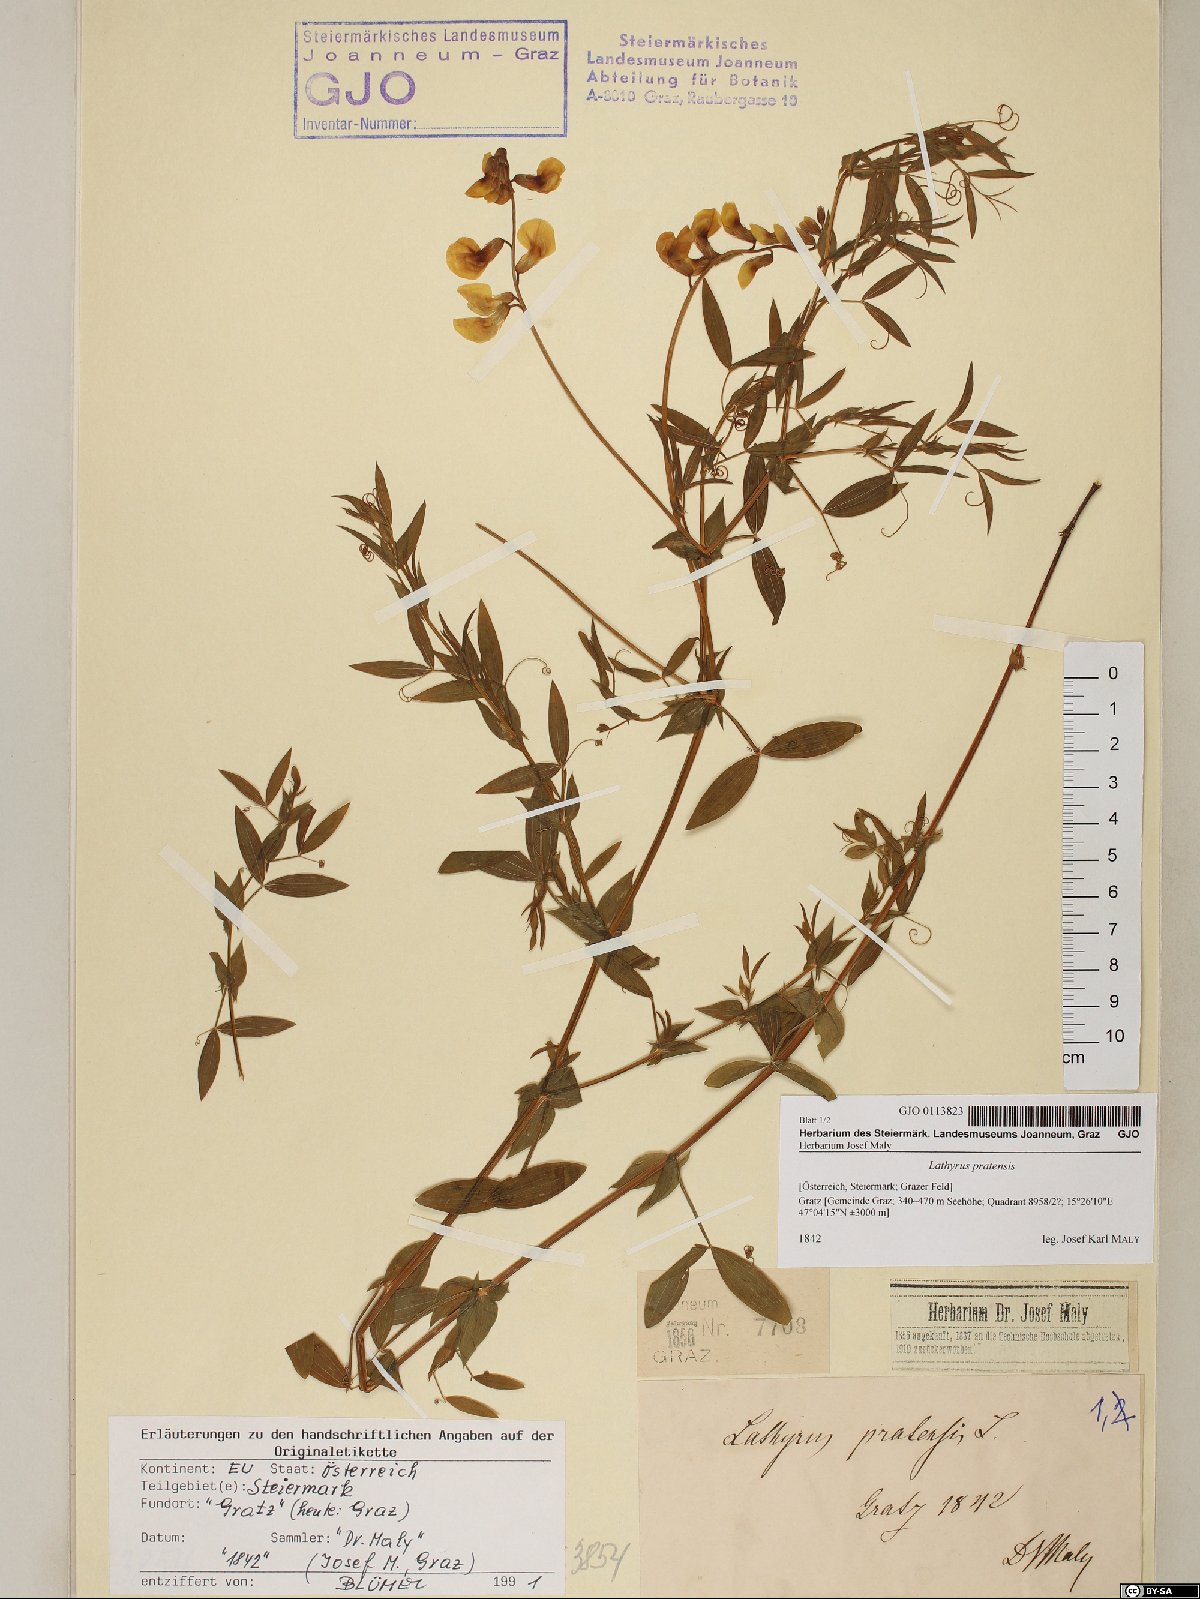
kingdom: Plantae
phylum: Tracheophyta
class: Magnoliopsida
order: Fabales
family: Fabaceae
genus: Lathyrus
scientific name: Lathyrus pratensis
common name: Meadow vetchling
